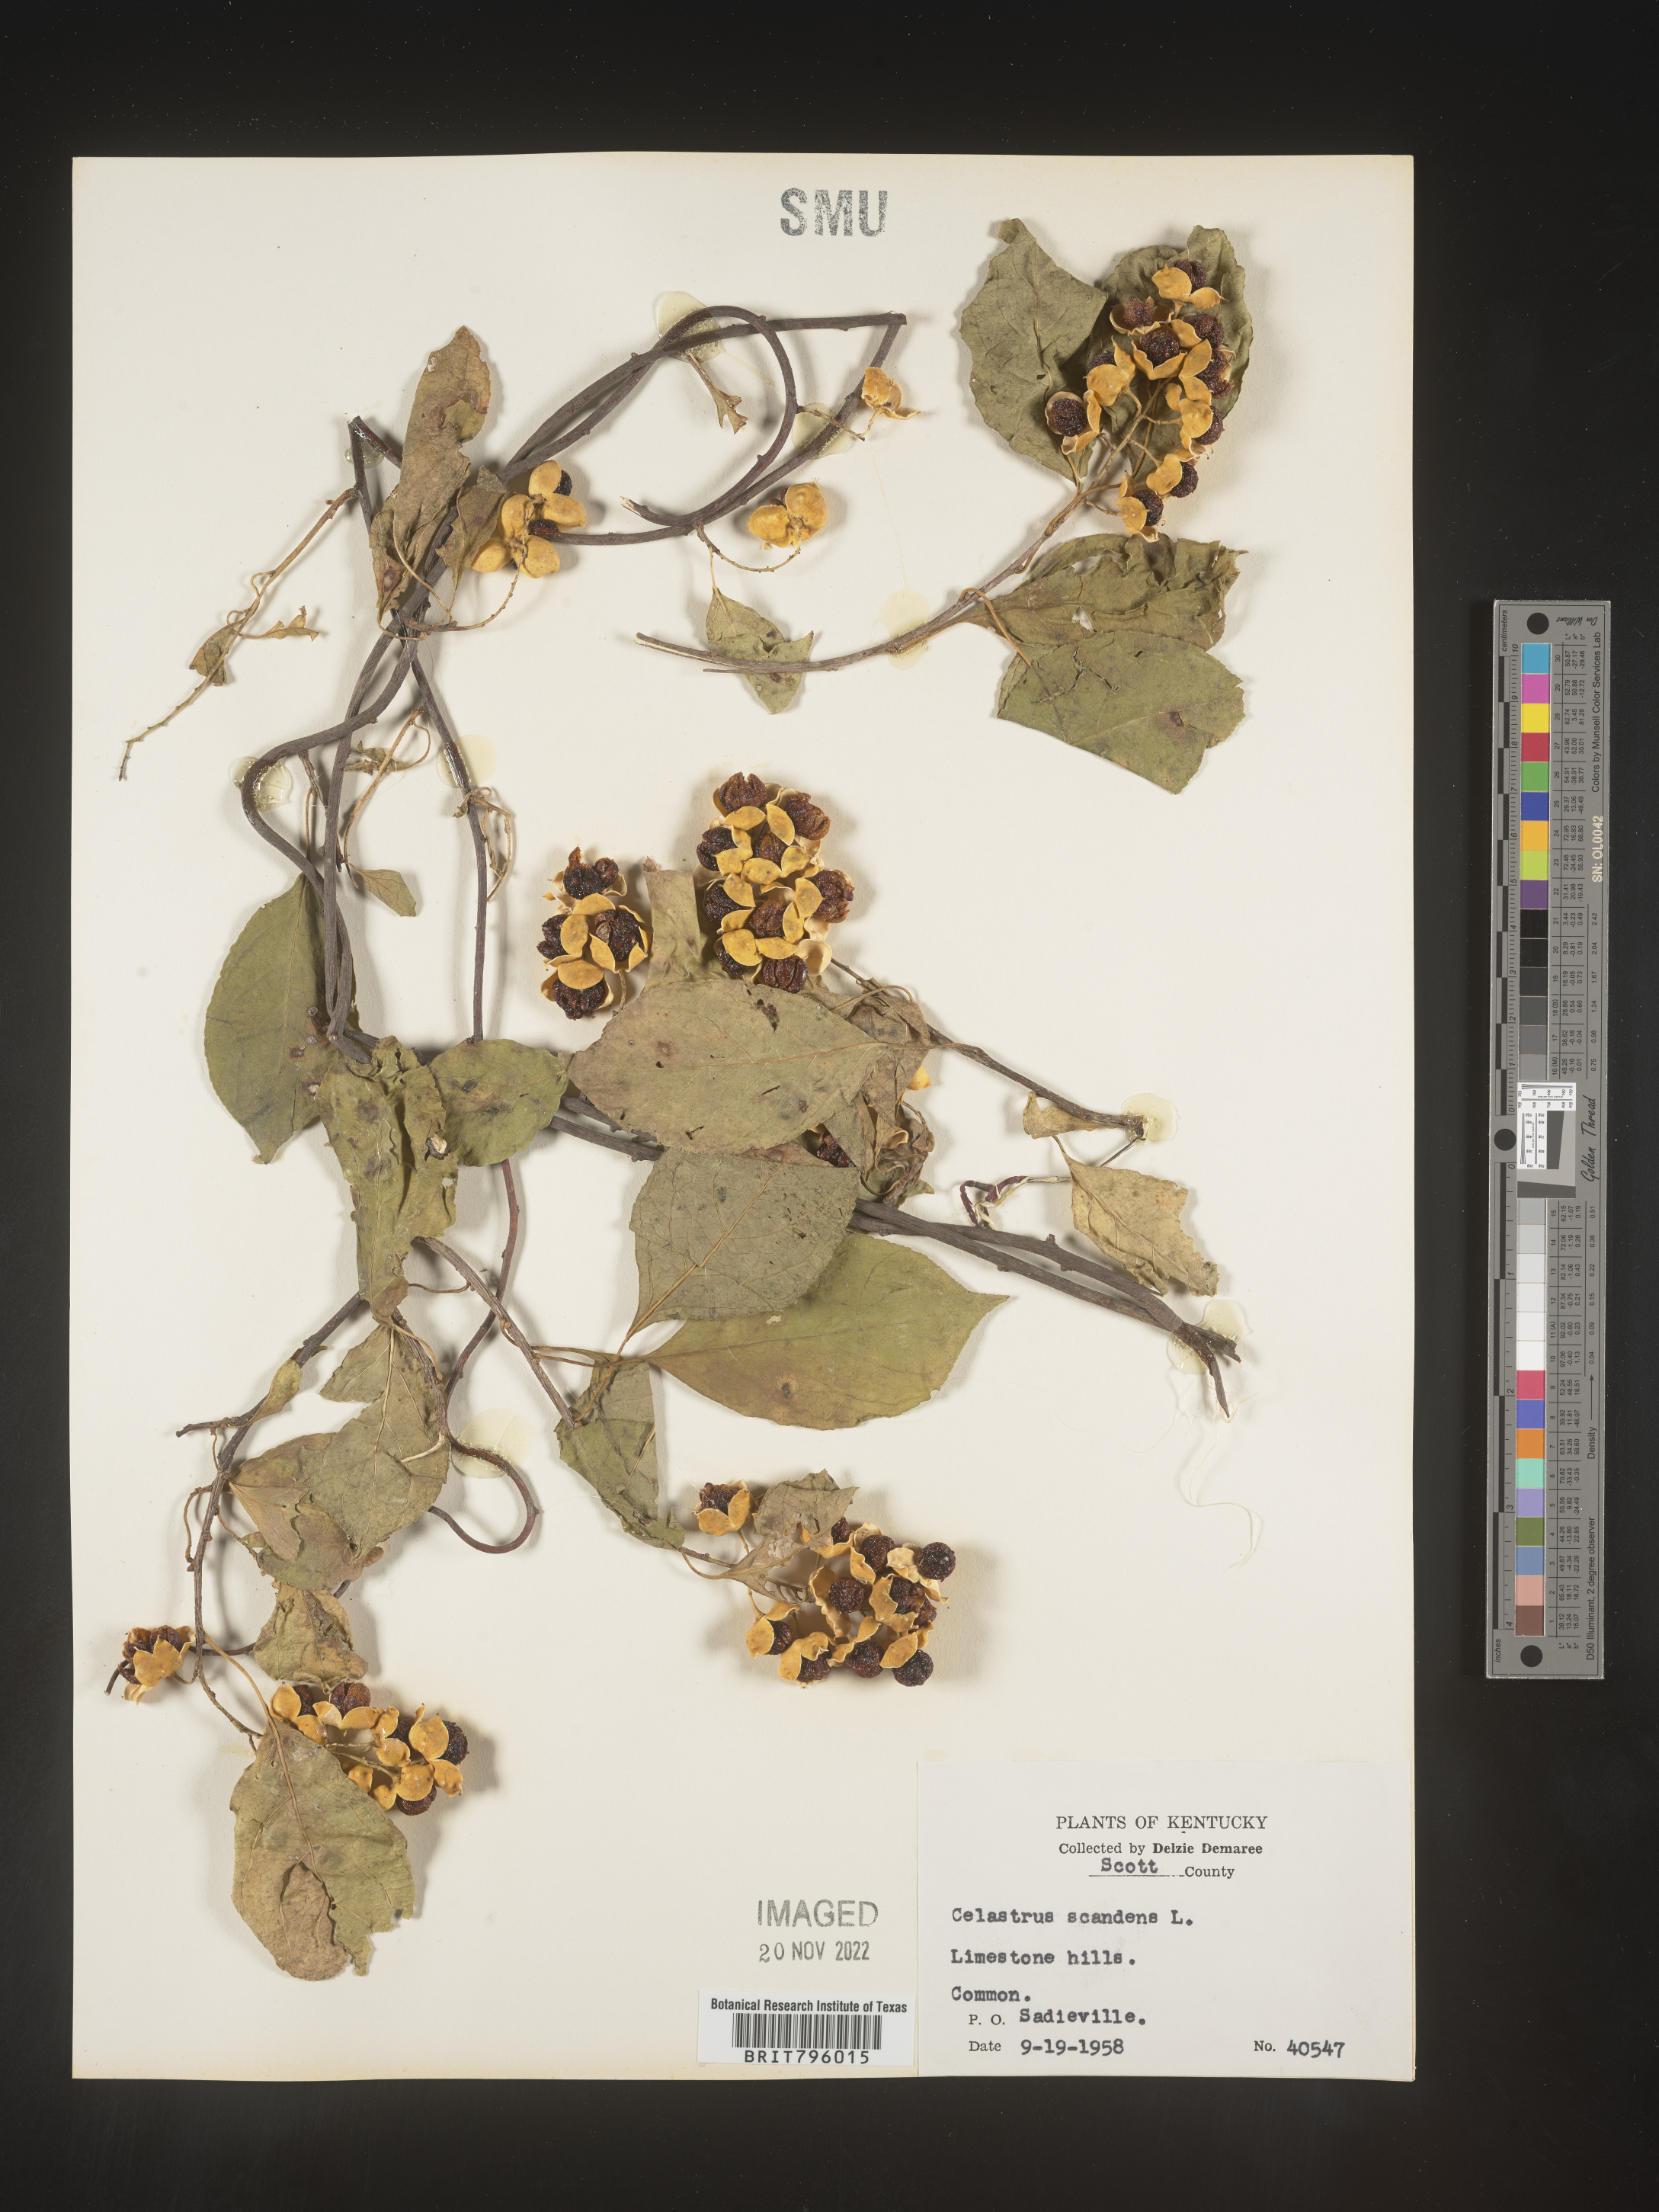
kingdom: Plantae
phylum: Tracheophyta
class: Magnoliopsida
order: Celastrales
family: Celastraceae
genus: Celastrus
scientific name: Celastrus scandens
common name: American bittersweet
